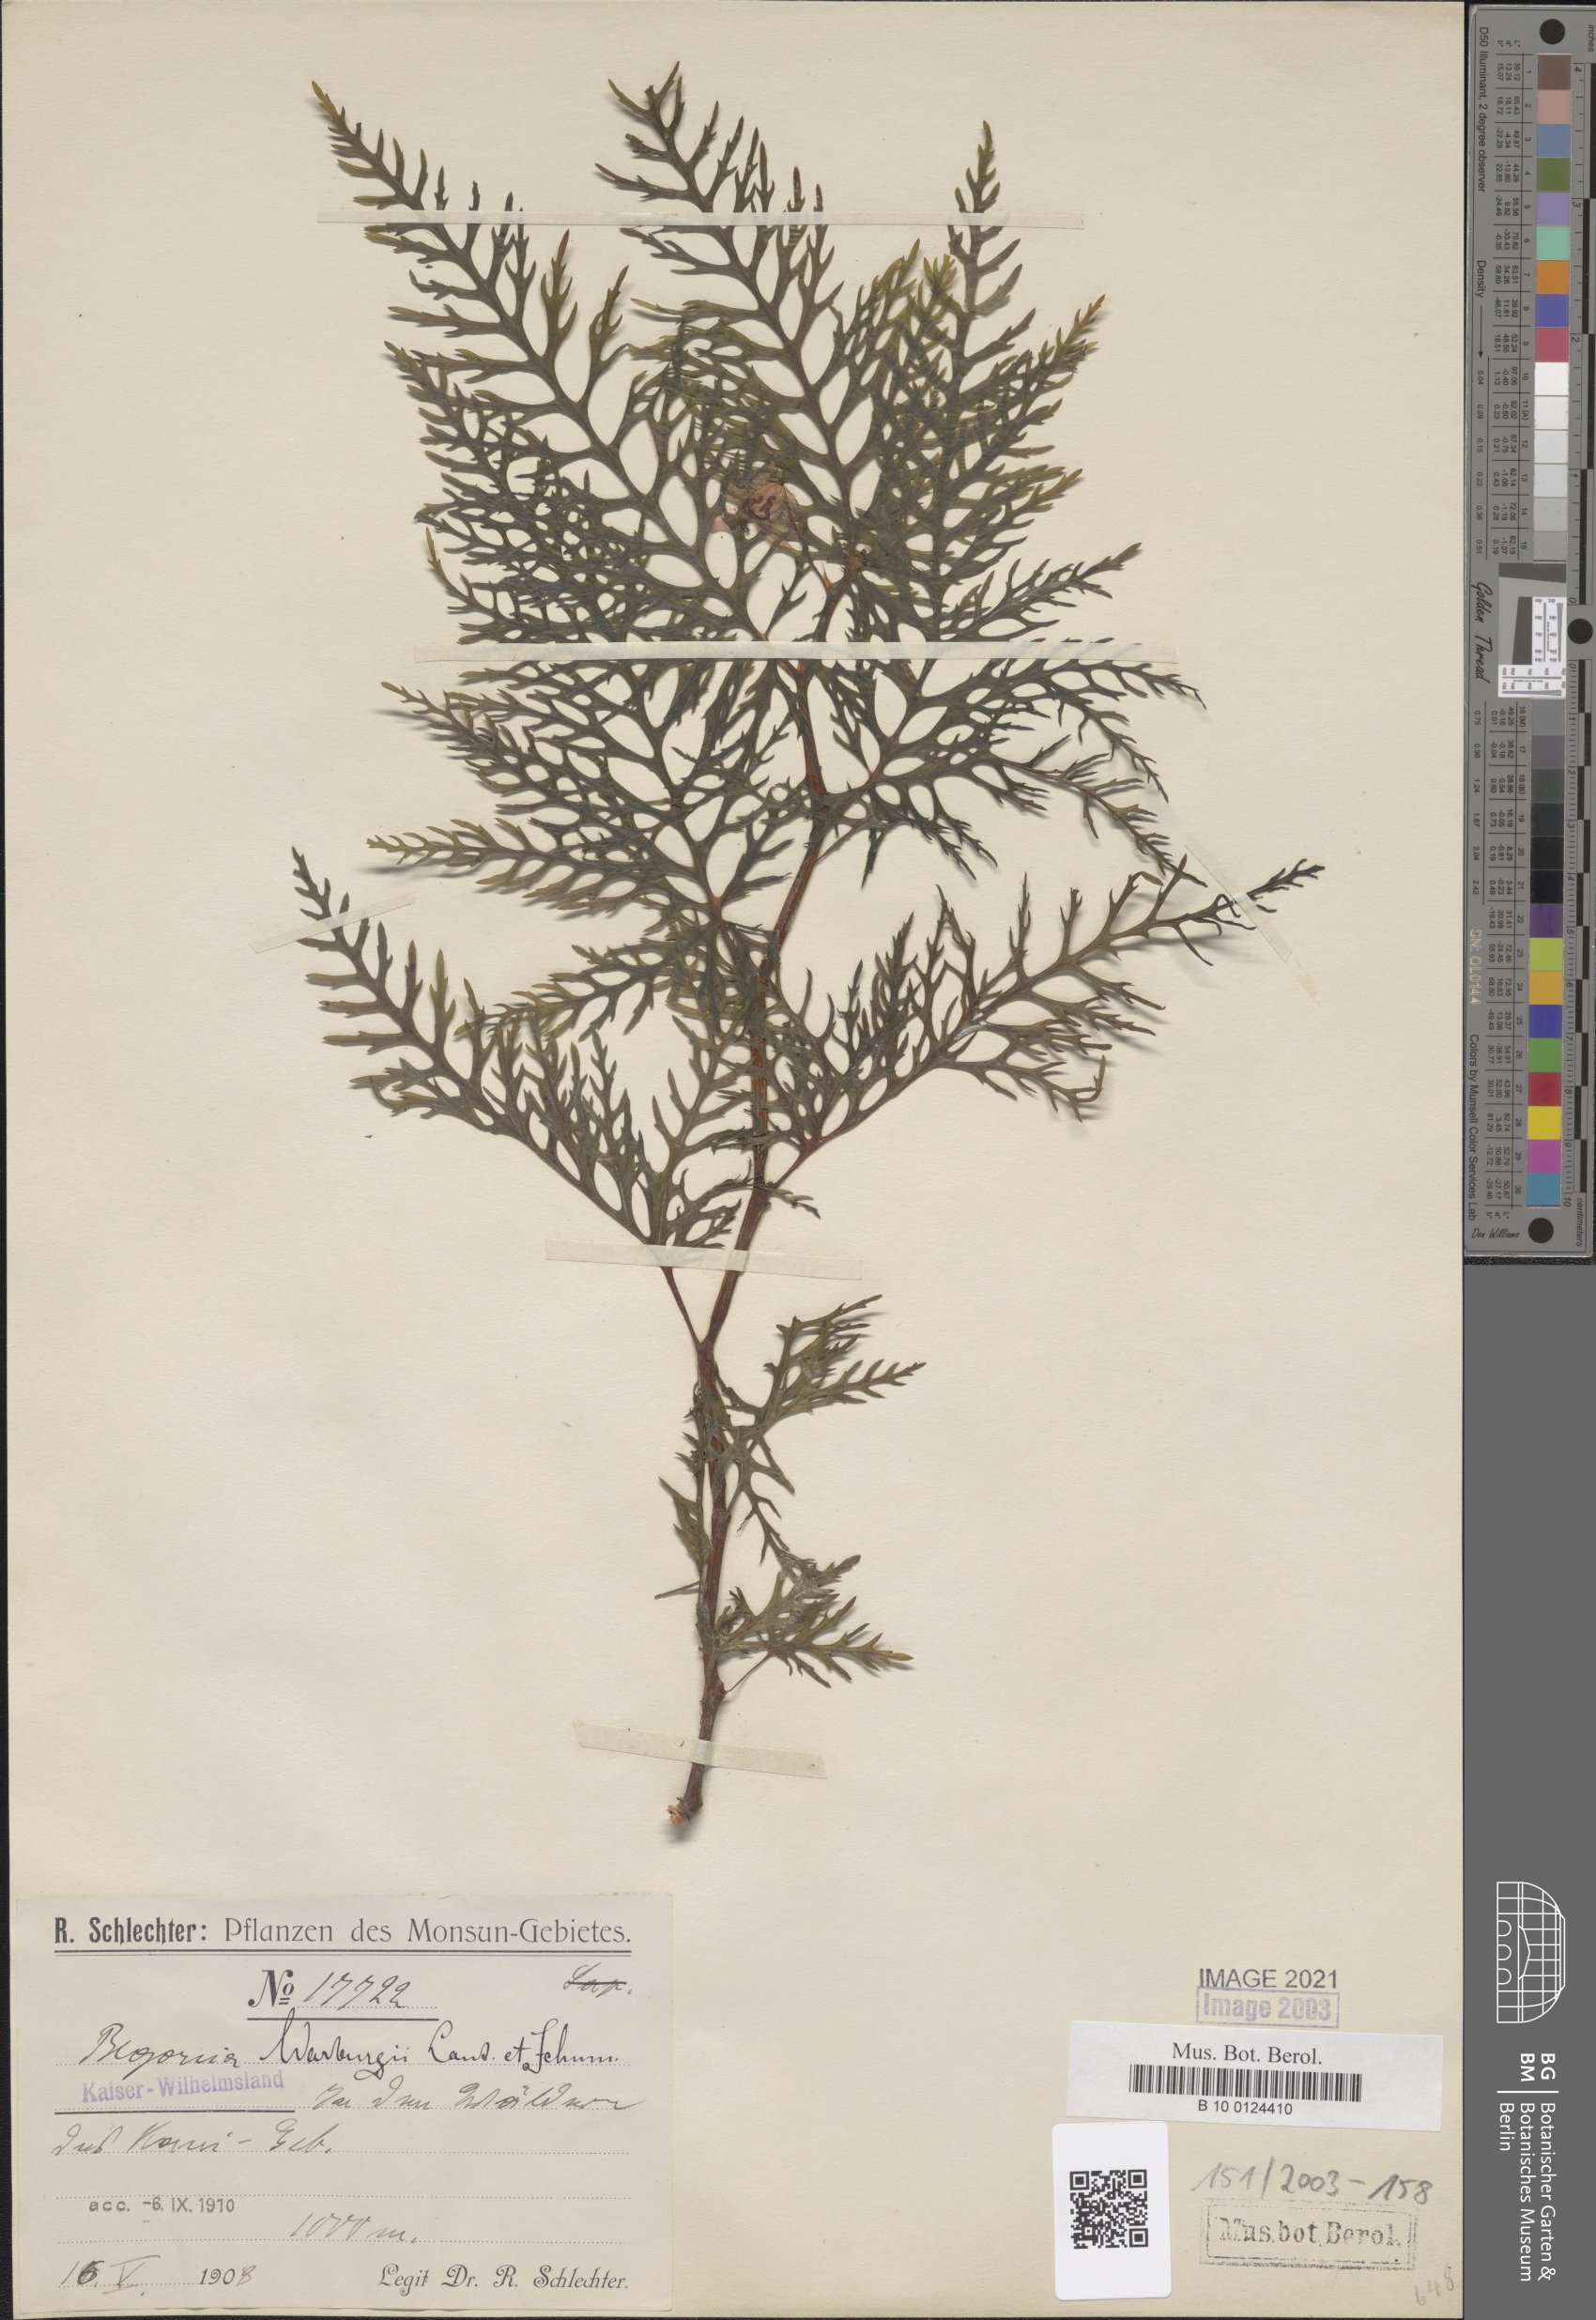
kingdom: Plantae
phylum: Tracheophyta
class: Magnoliopsida
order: Cucurbitales
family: Begoniaceae
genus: Begonia
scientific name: Begonia warburgii
